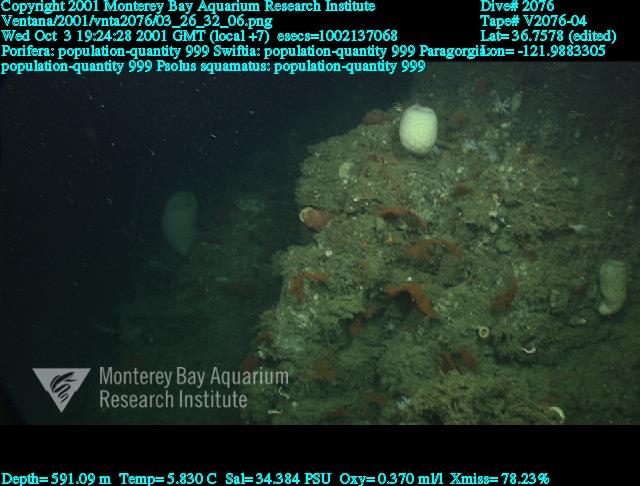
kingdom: Animalia
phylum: Porifera
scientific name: Porifera
